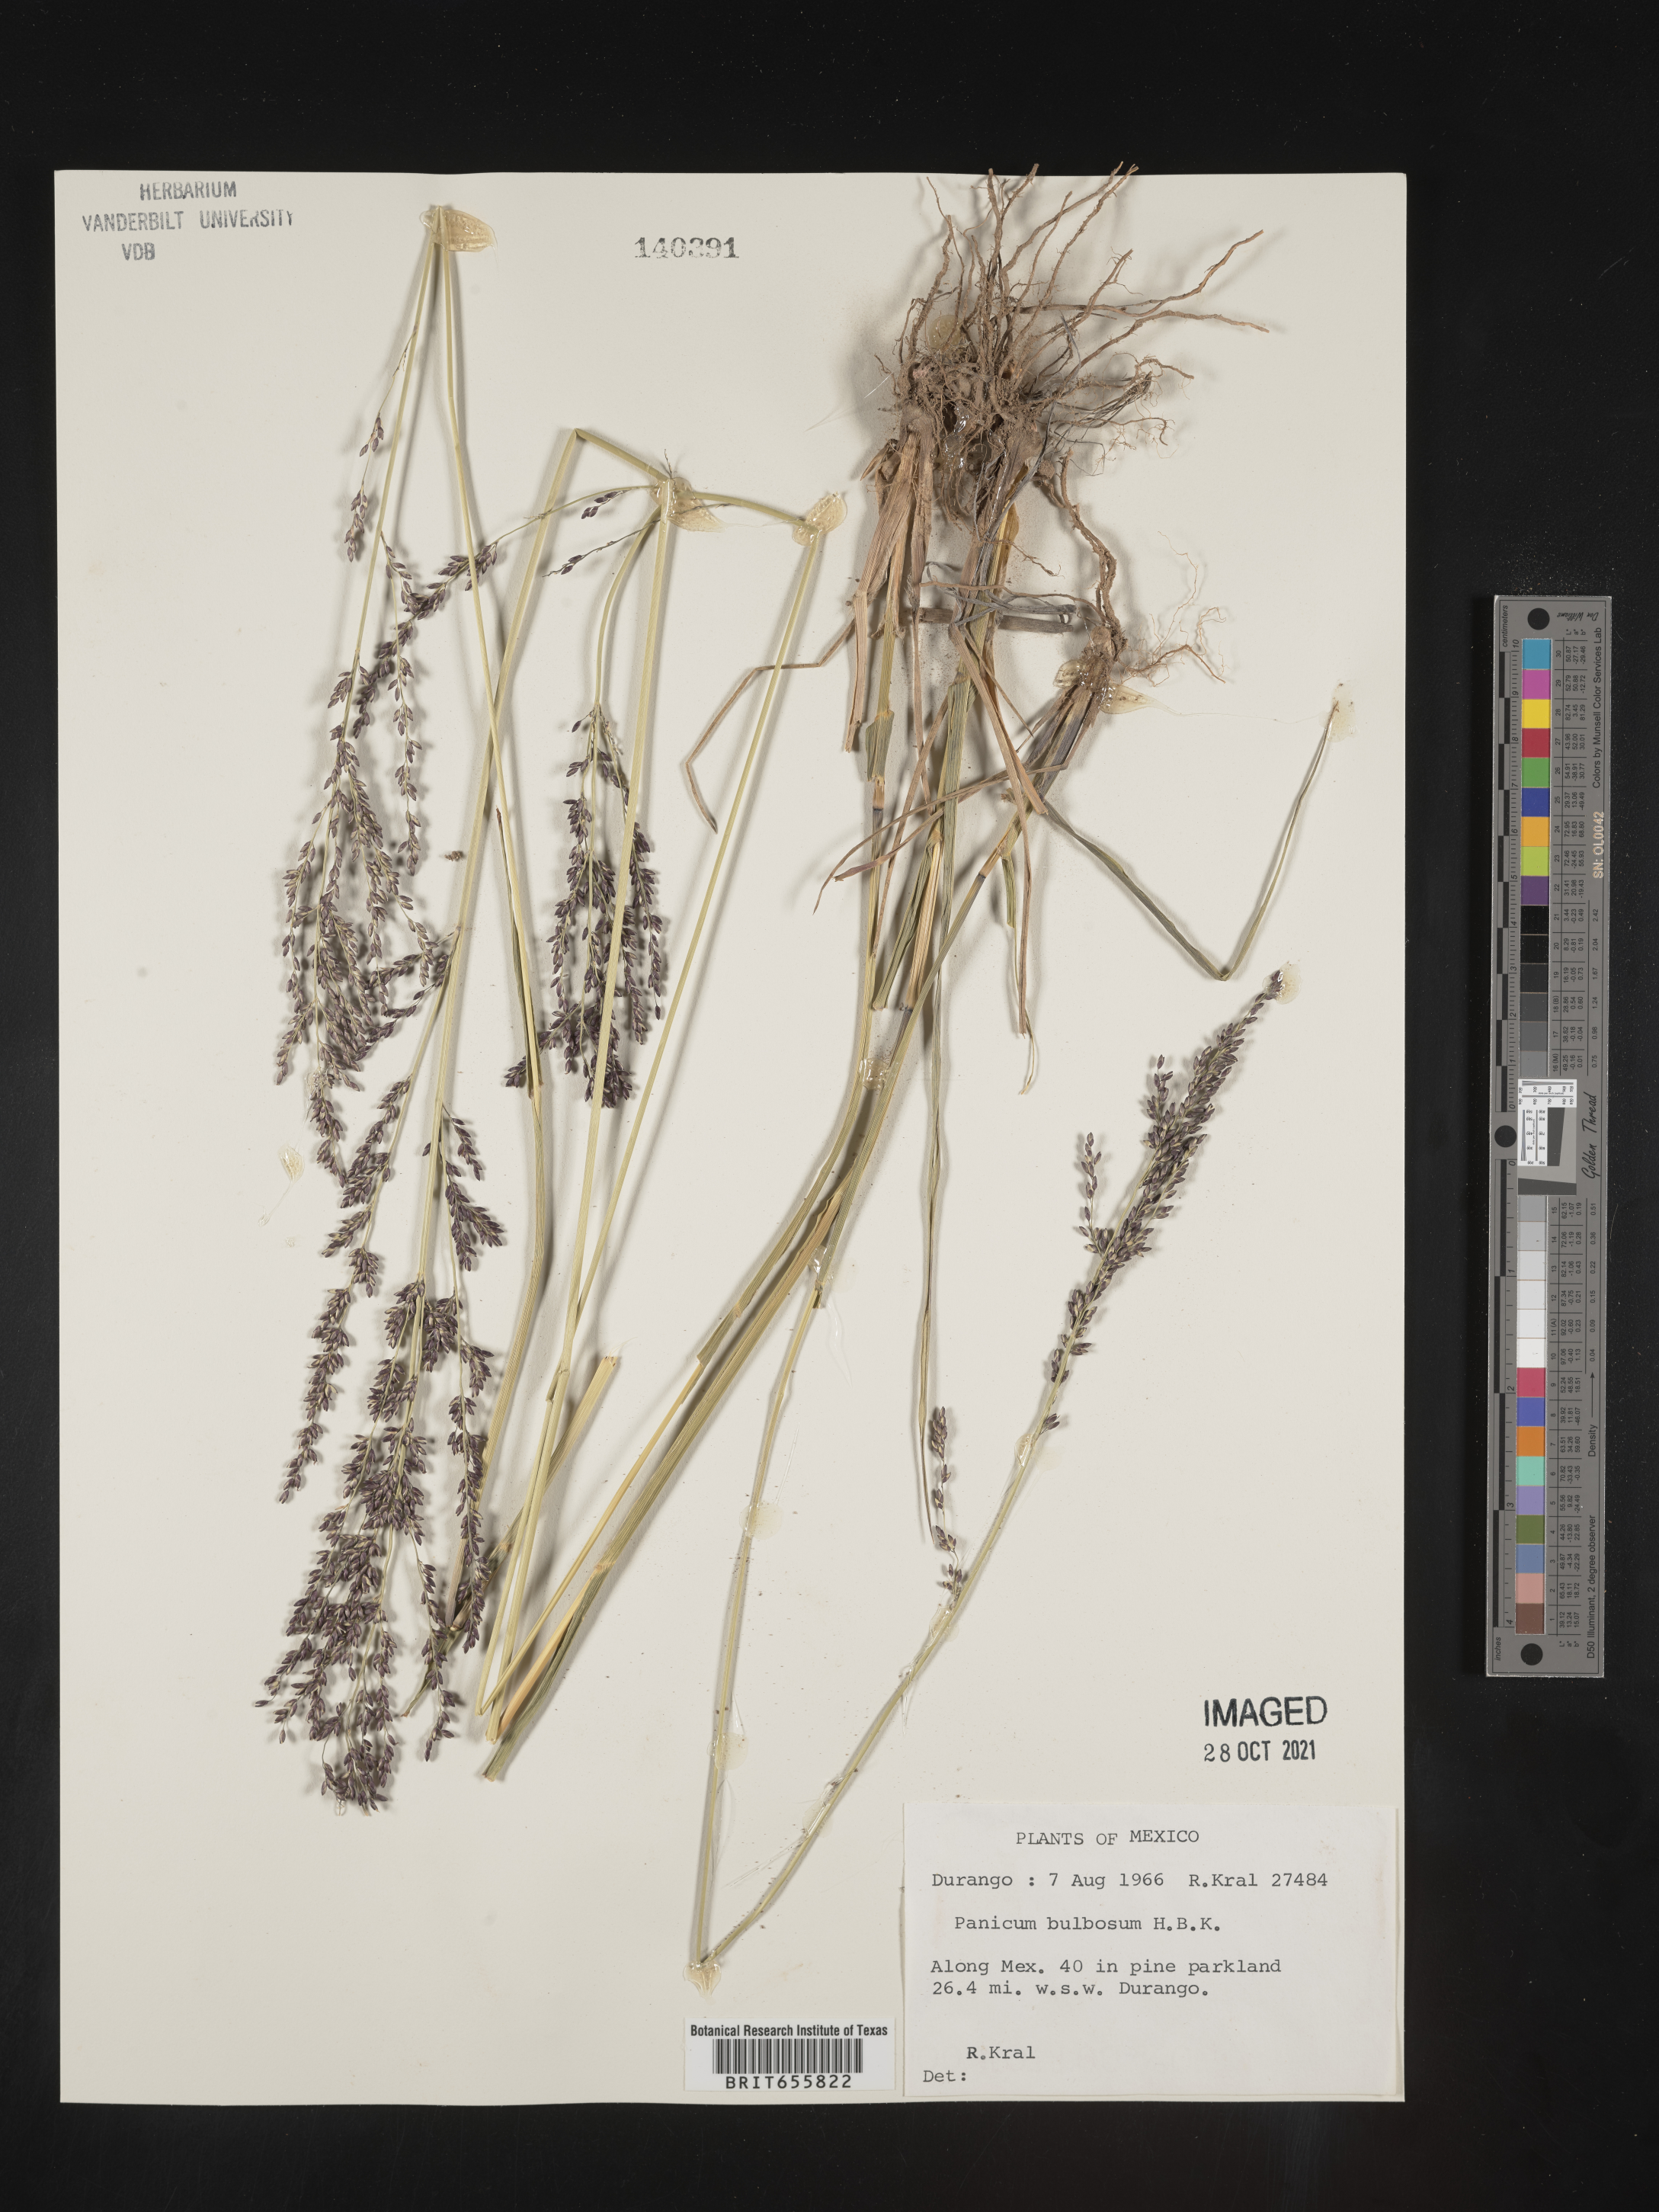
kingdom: Plantae
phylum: Tracheophyta
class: Liliopsida
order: Poales
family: Poaceae
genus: Panicum
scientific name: Panicum
